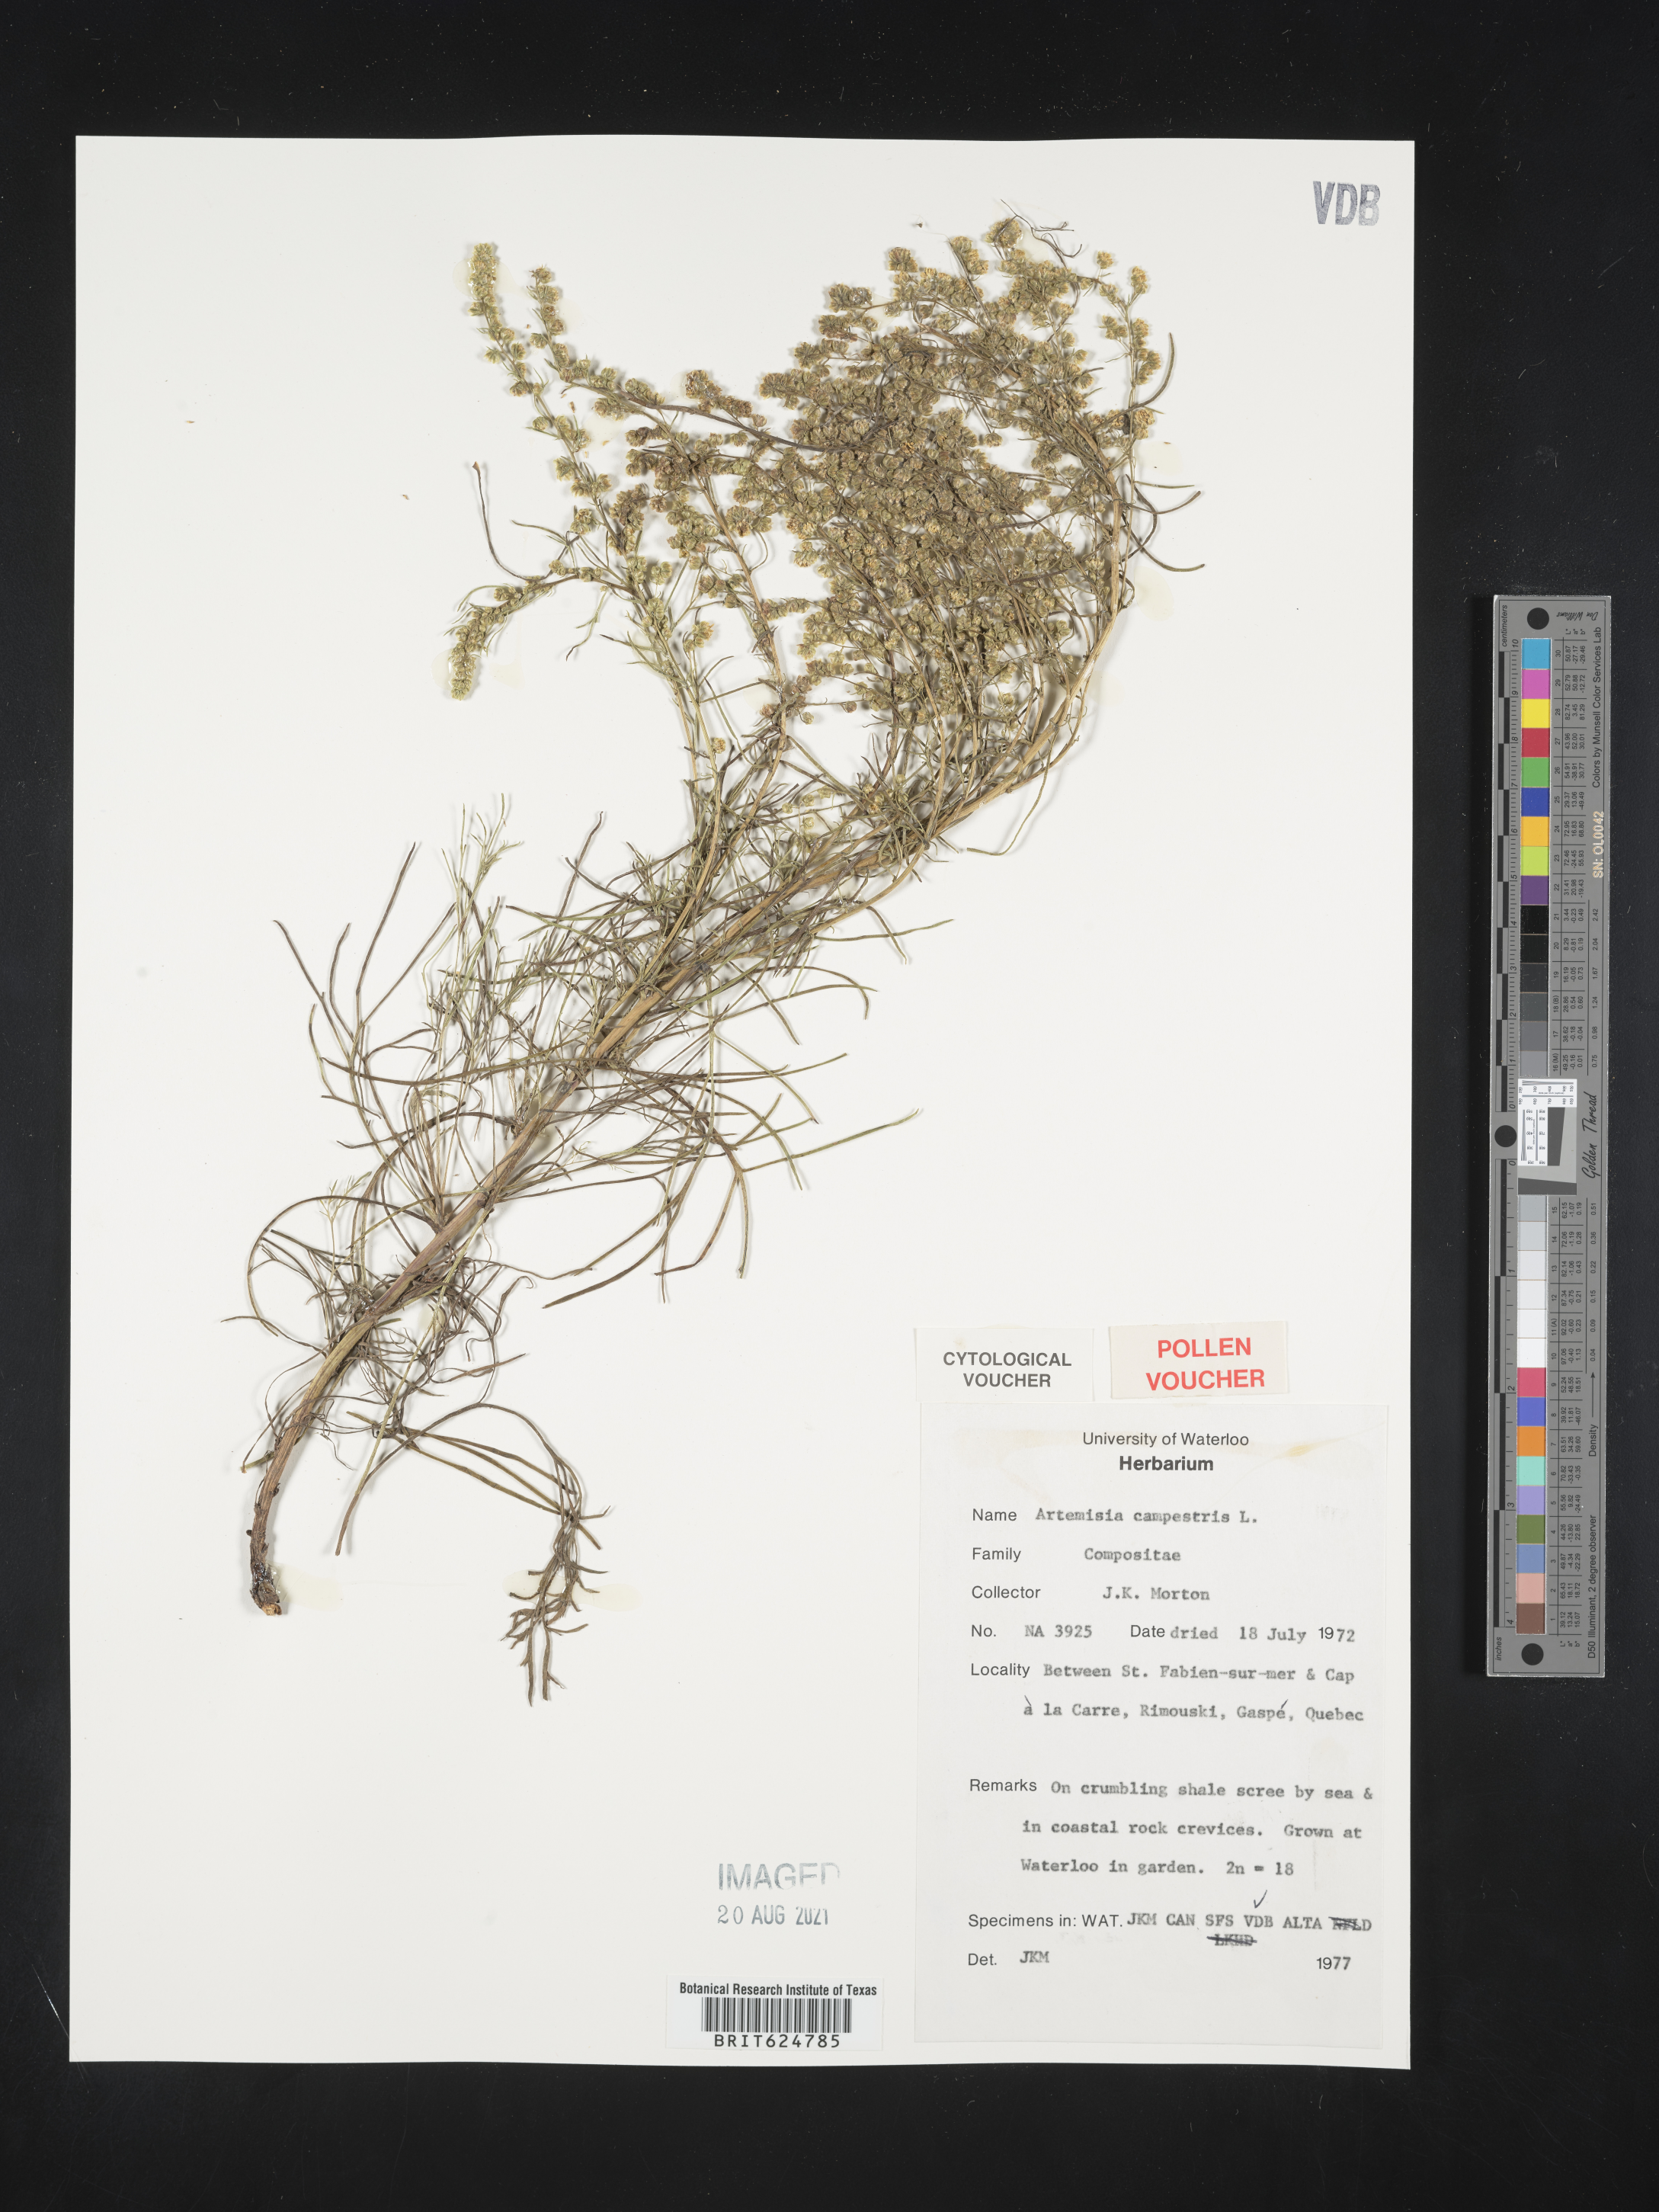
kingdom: Plantae
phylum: Tracheophyta
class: Magnoliopsida
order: Asterales
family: Asteraceae
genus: Artemisia
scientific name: Artemisia campestris
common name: Field wormwood
